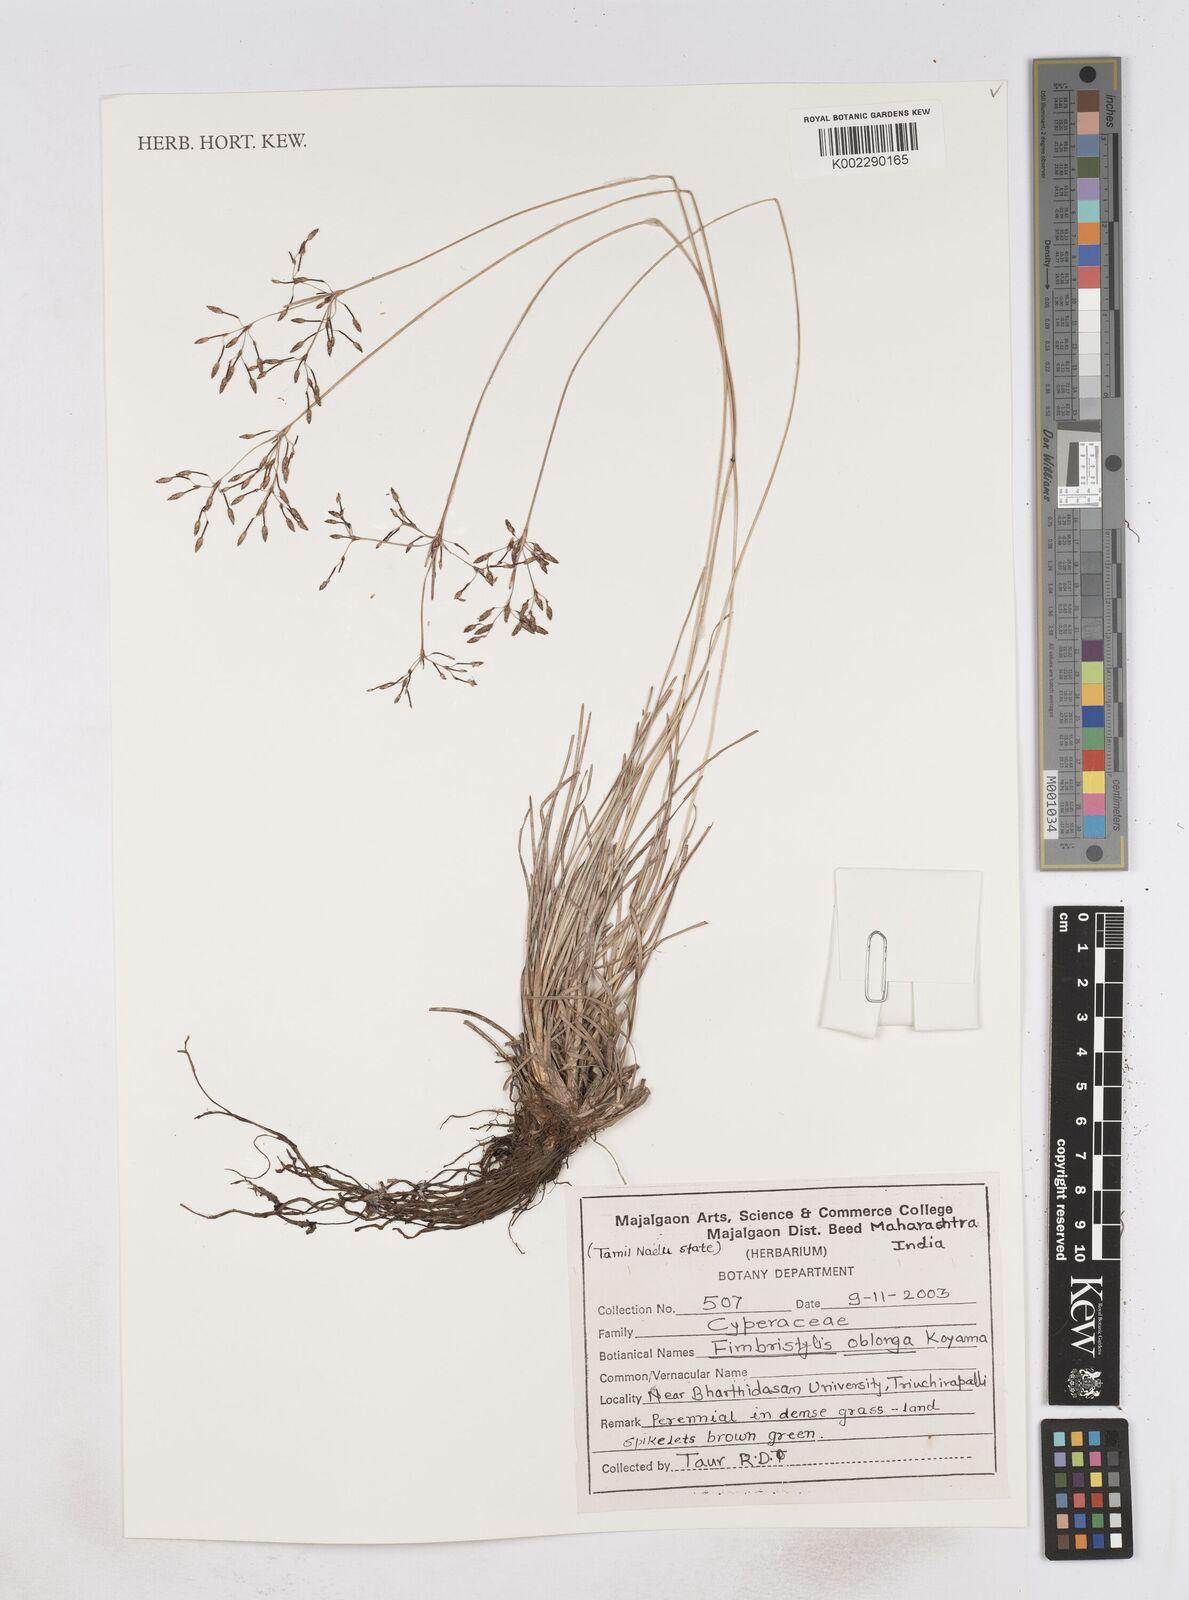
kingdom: Plantae
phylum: Tracheophyta
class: Liliopsida
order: Poales
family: Cyperaceae
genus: Fimbristylis
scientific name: Fimbristylis oblonga
